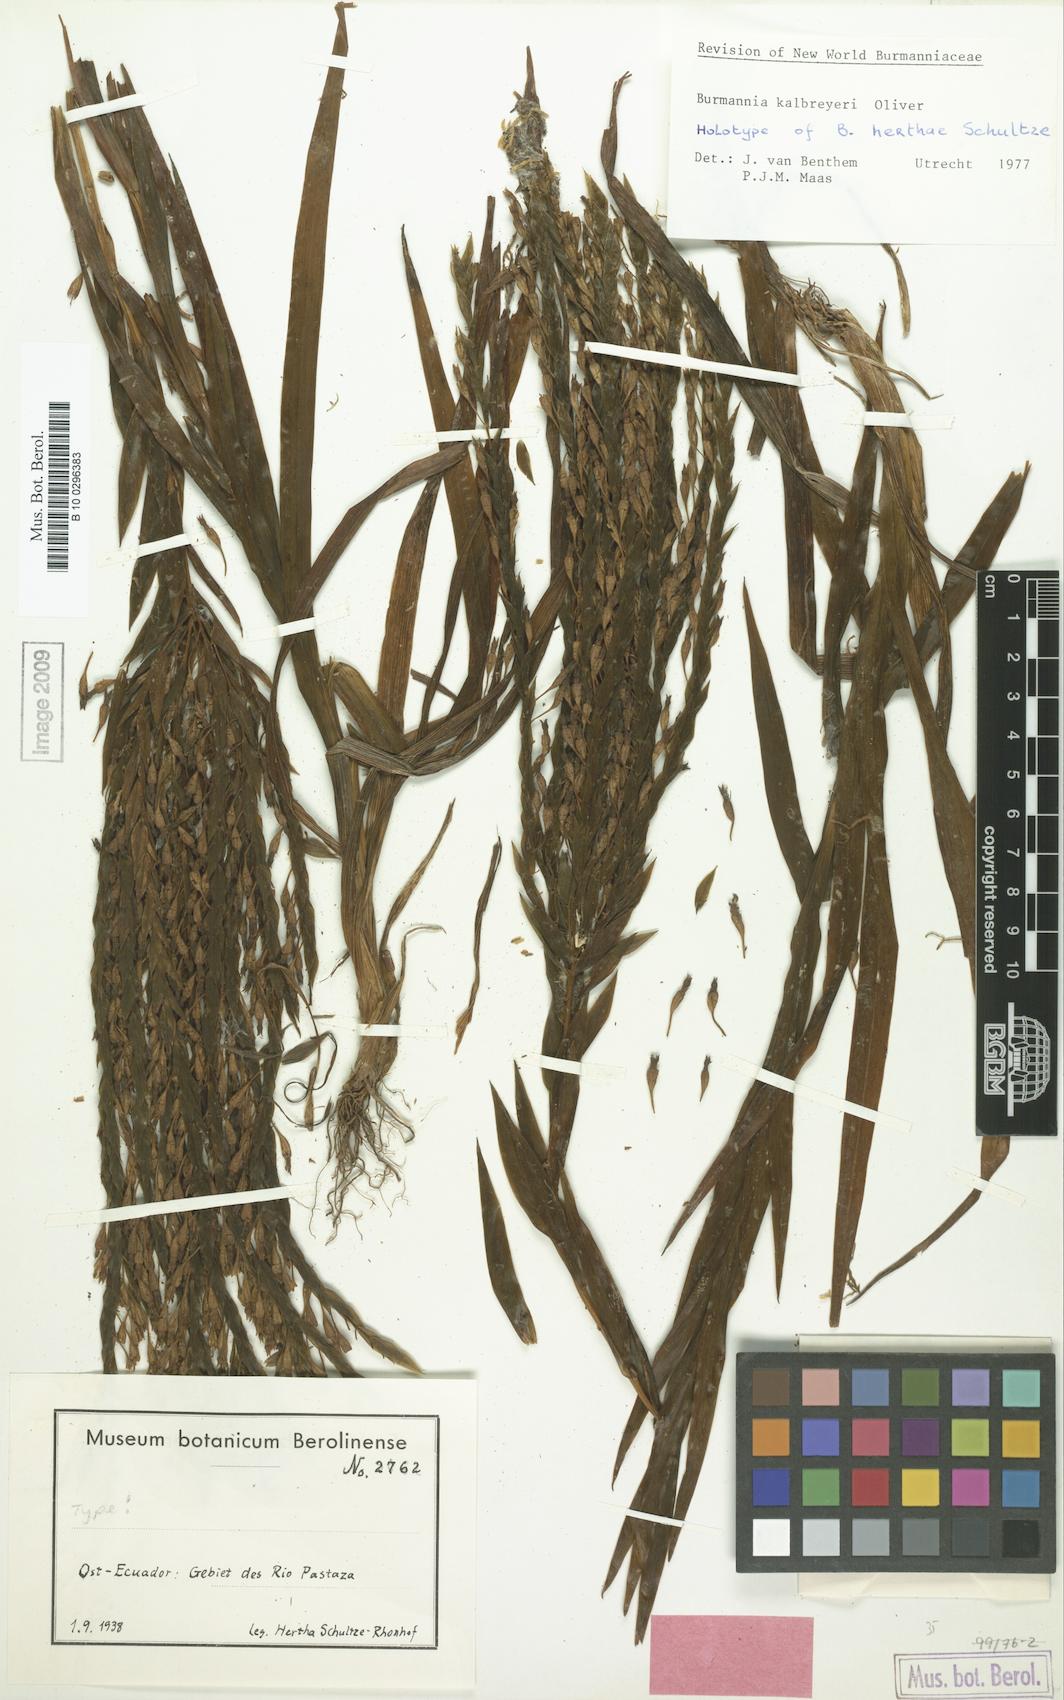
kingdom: Plantae
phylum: Tracheophyta
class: Liliopsida
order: Dioscoreales
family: Burmanniaceae
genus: Burmannia
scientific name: Burmannia kalbreyeri
